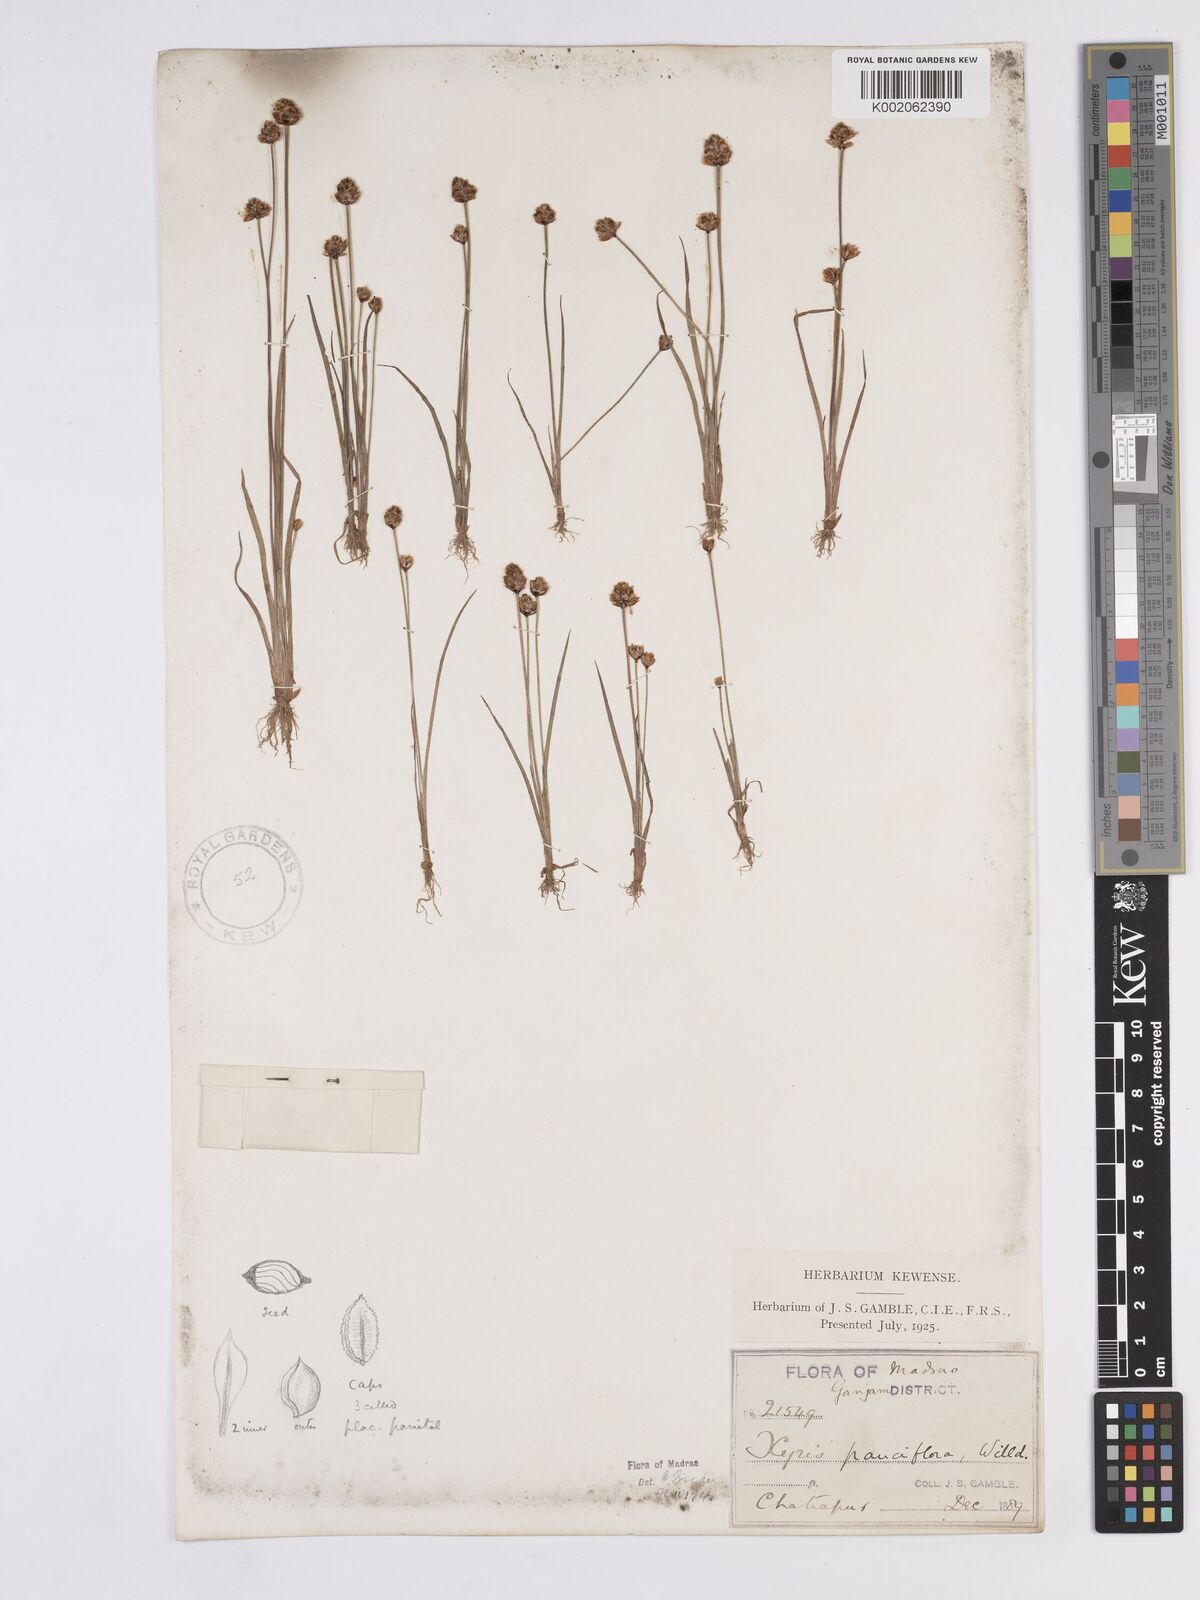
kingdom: Plantae
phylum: Tracheophyta
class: Liliopsida
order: Poales
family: Xyridaceae
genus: Xyris
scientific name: Xyris pauciflora
